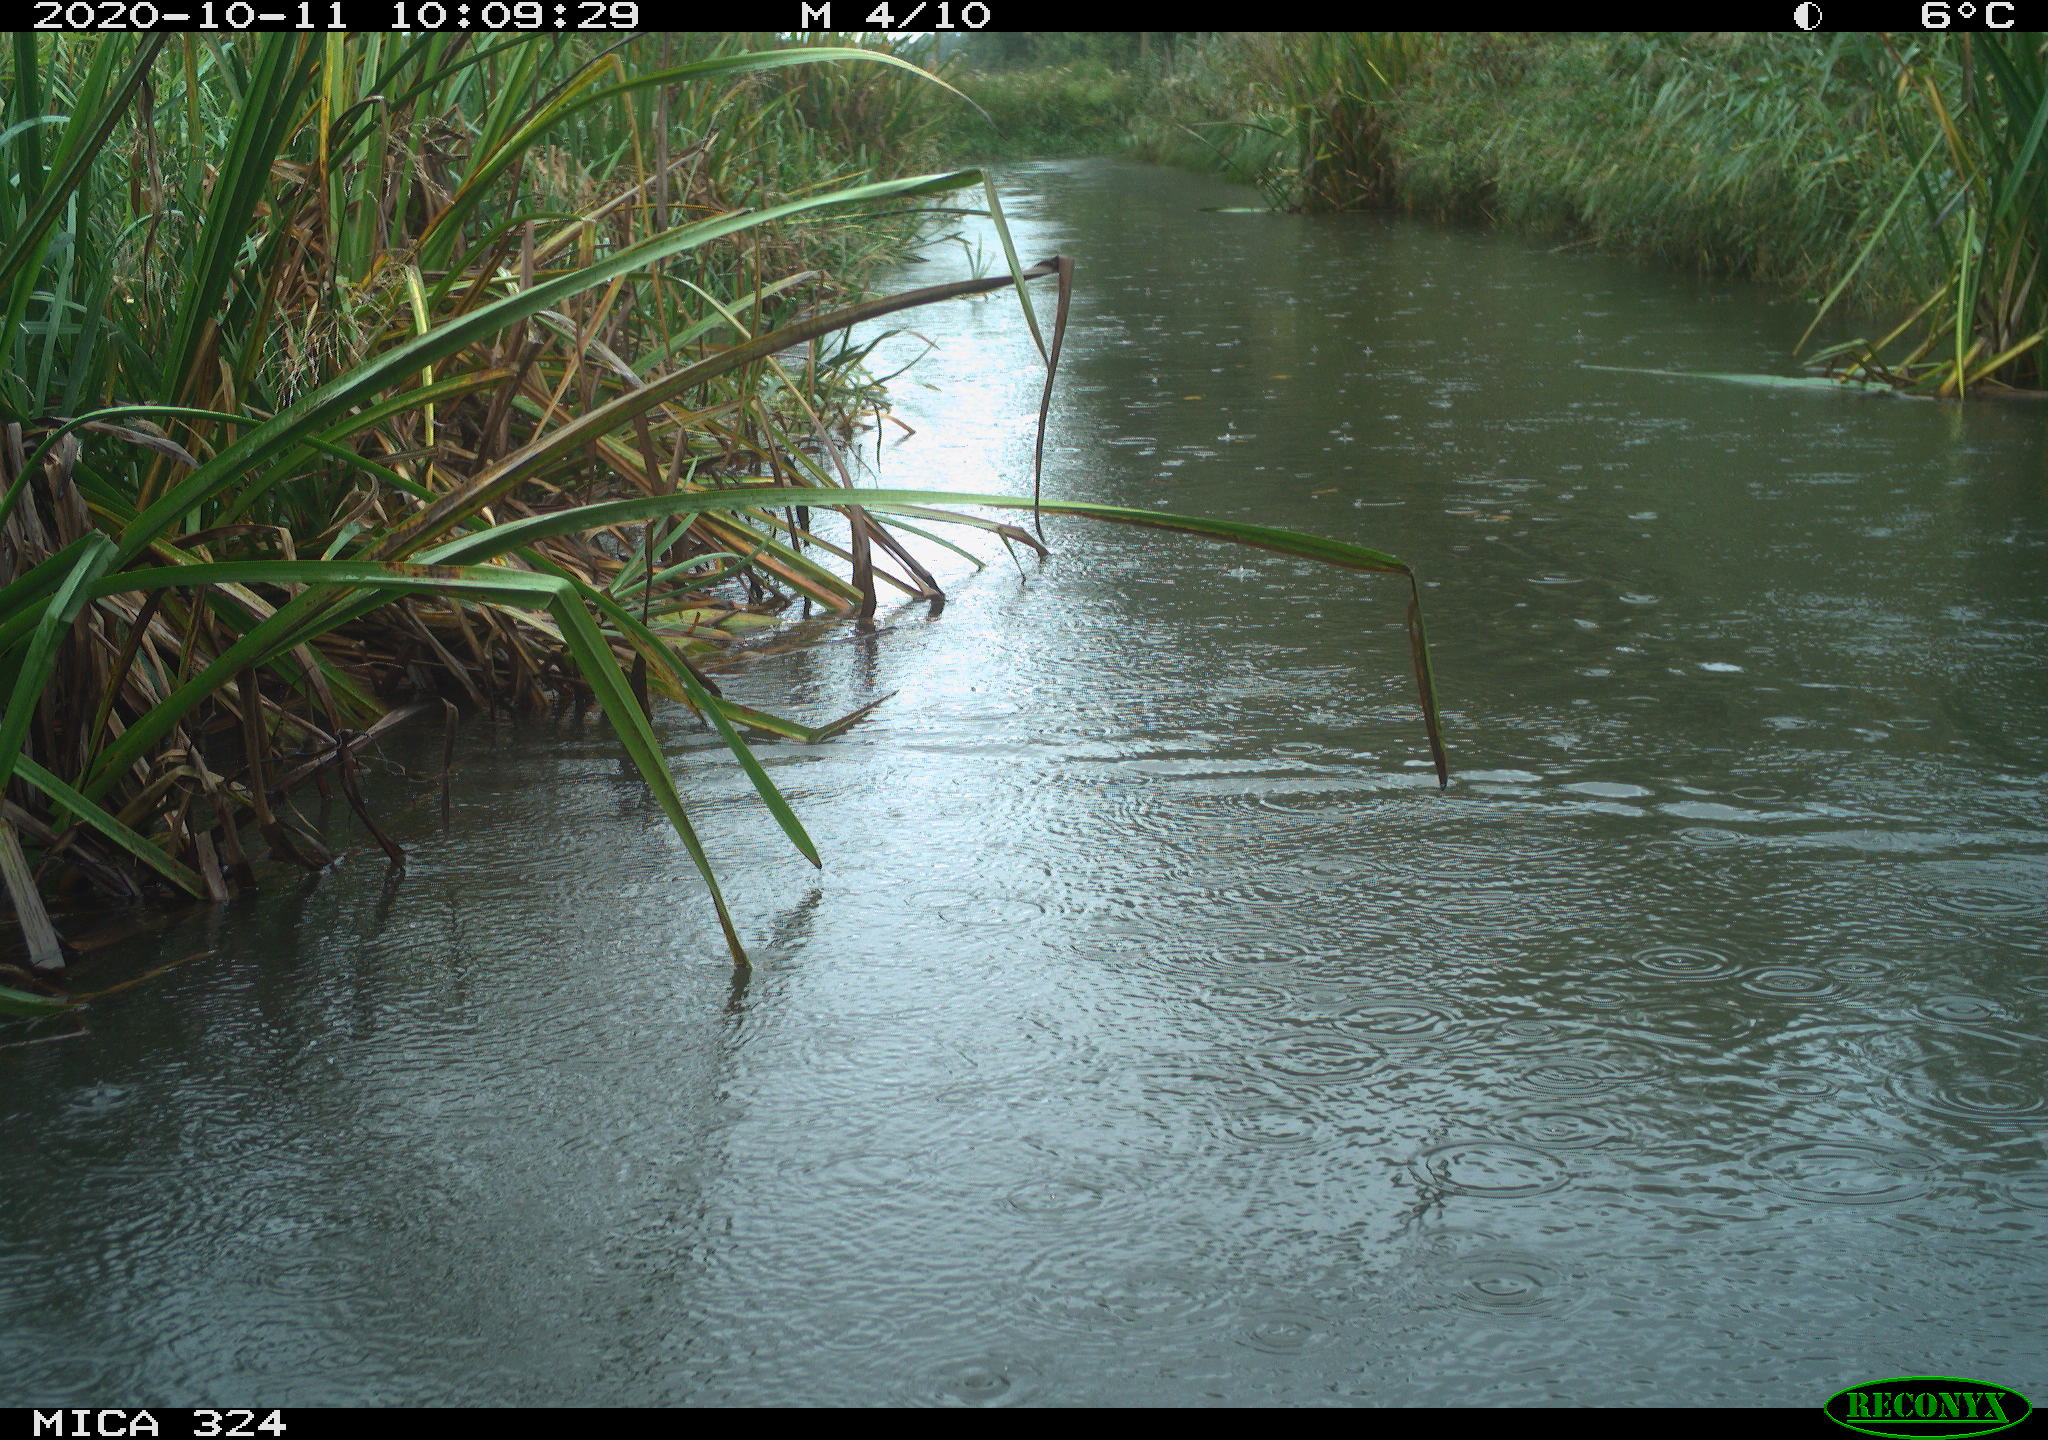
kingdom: Animalia
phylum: Chordata
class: Aves
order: Gruiformes
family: Rallidae
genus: Gallinula
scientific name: Gallinula chloropus
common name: Common moorhen
